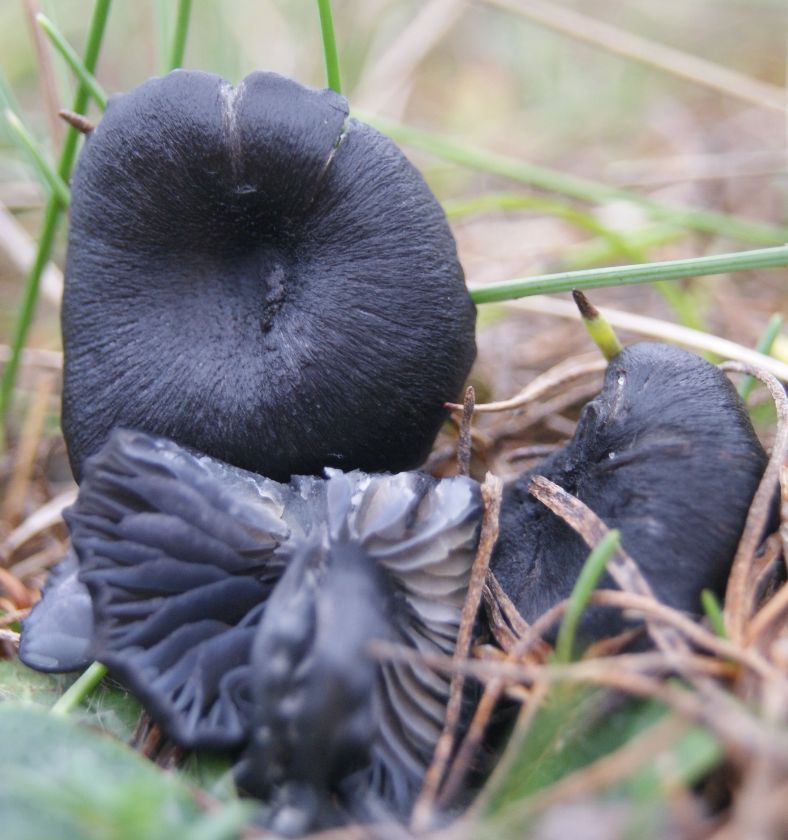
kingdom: Fungi
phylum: Basidiomycota
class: Agaricomycetes
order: Agaricales
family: Entolomataceae
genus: Entoloma
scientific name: Entoloma chalybeum
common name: blåbladet rødblad
